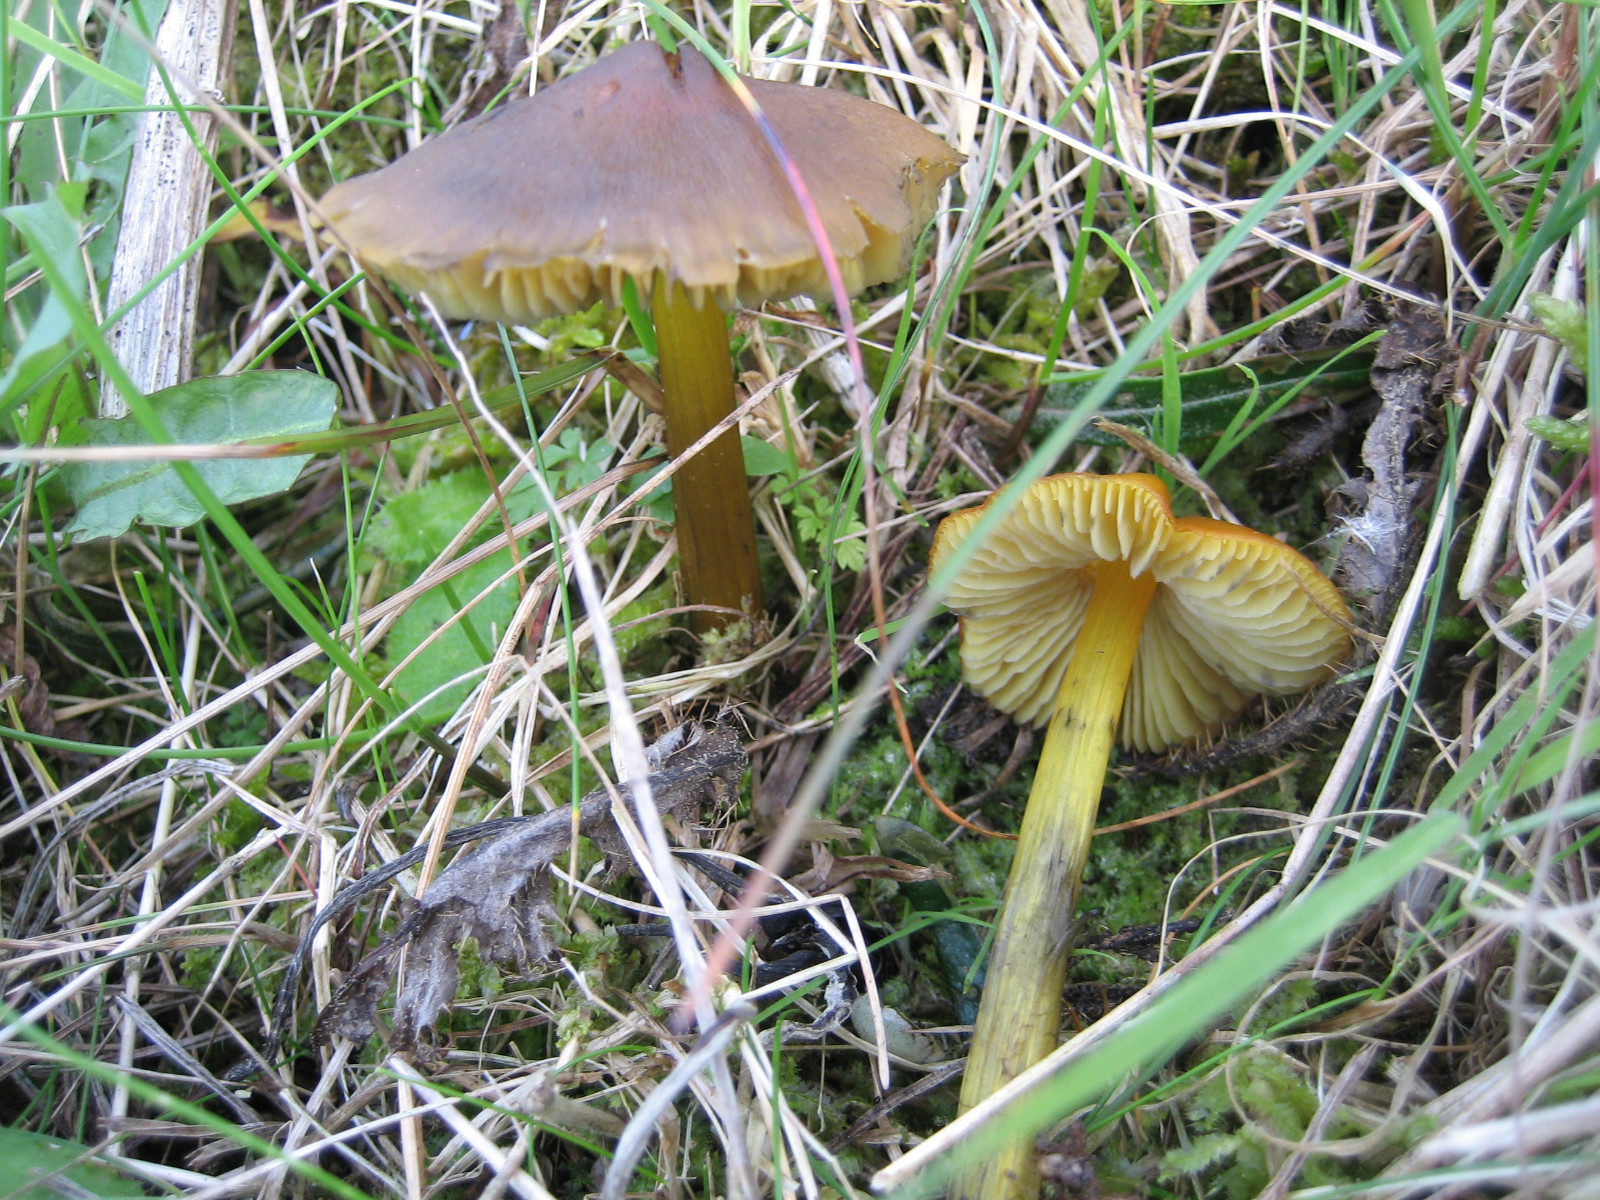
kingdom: Fungi
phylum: Basidiomycota
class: Agaricomycetes
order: Agaricales
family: Hygrophoraceae
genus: Hygrocybe
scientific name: Hygrocybe conica
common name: kegle-vokshat
